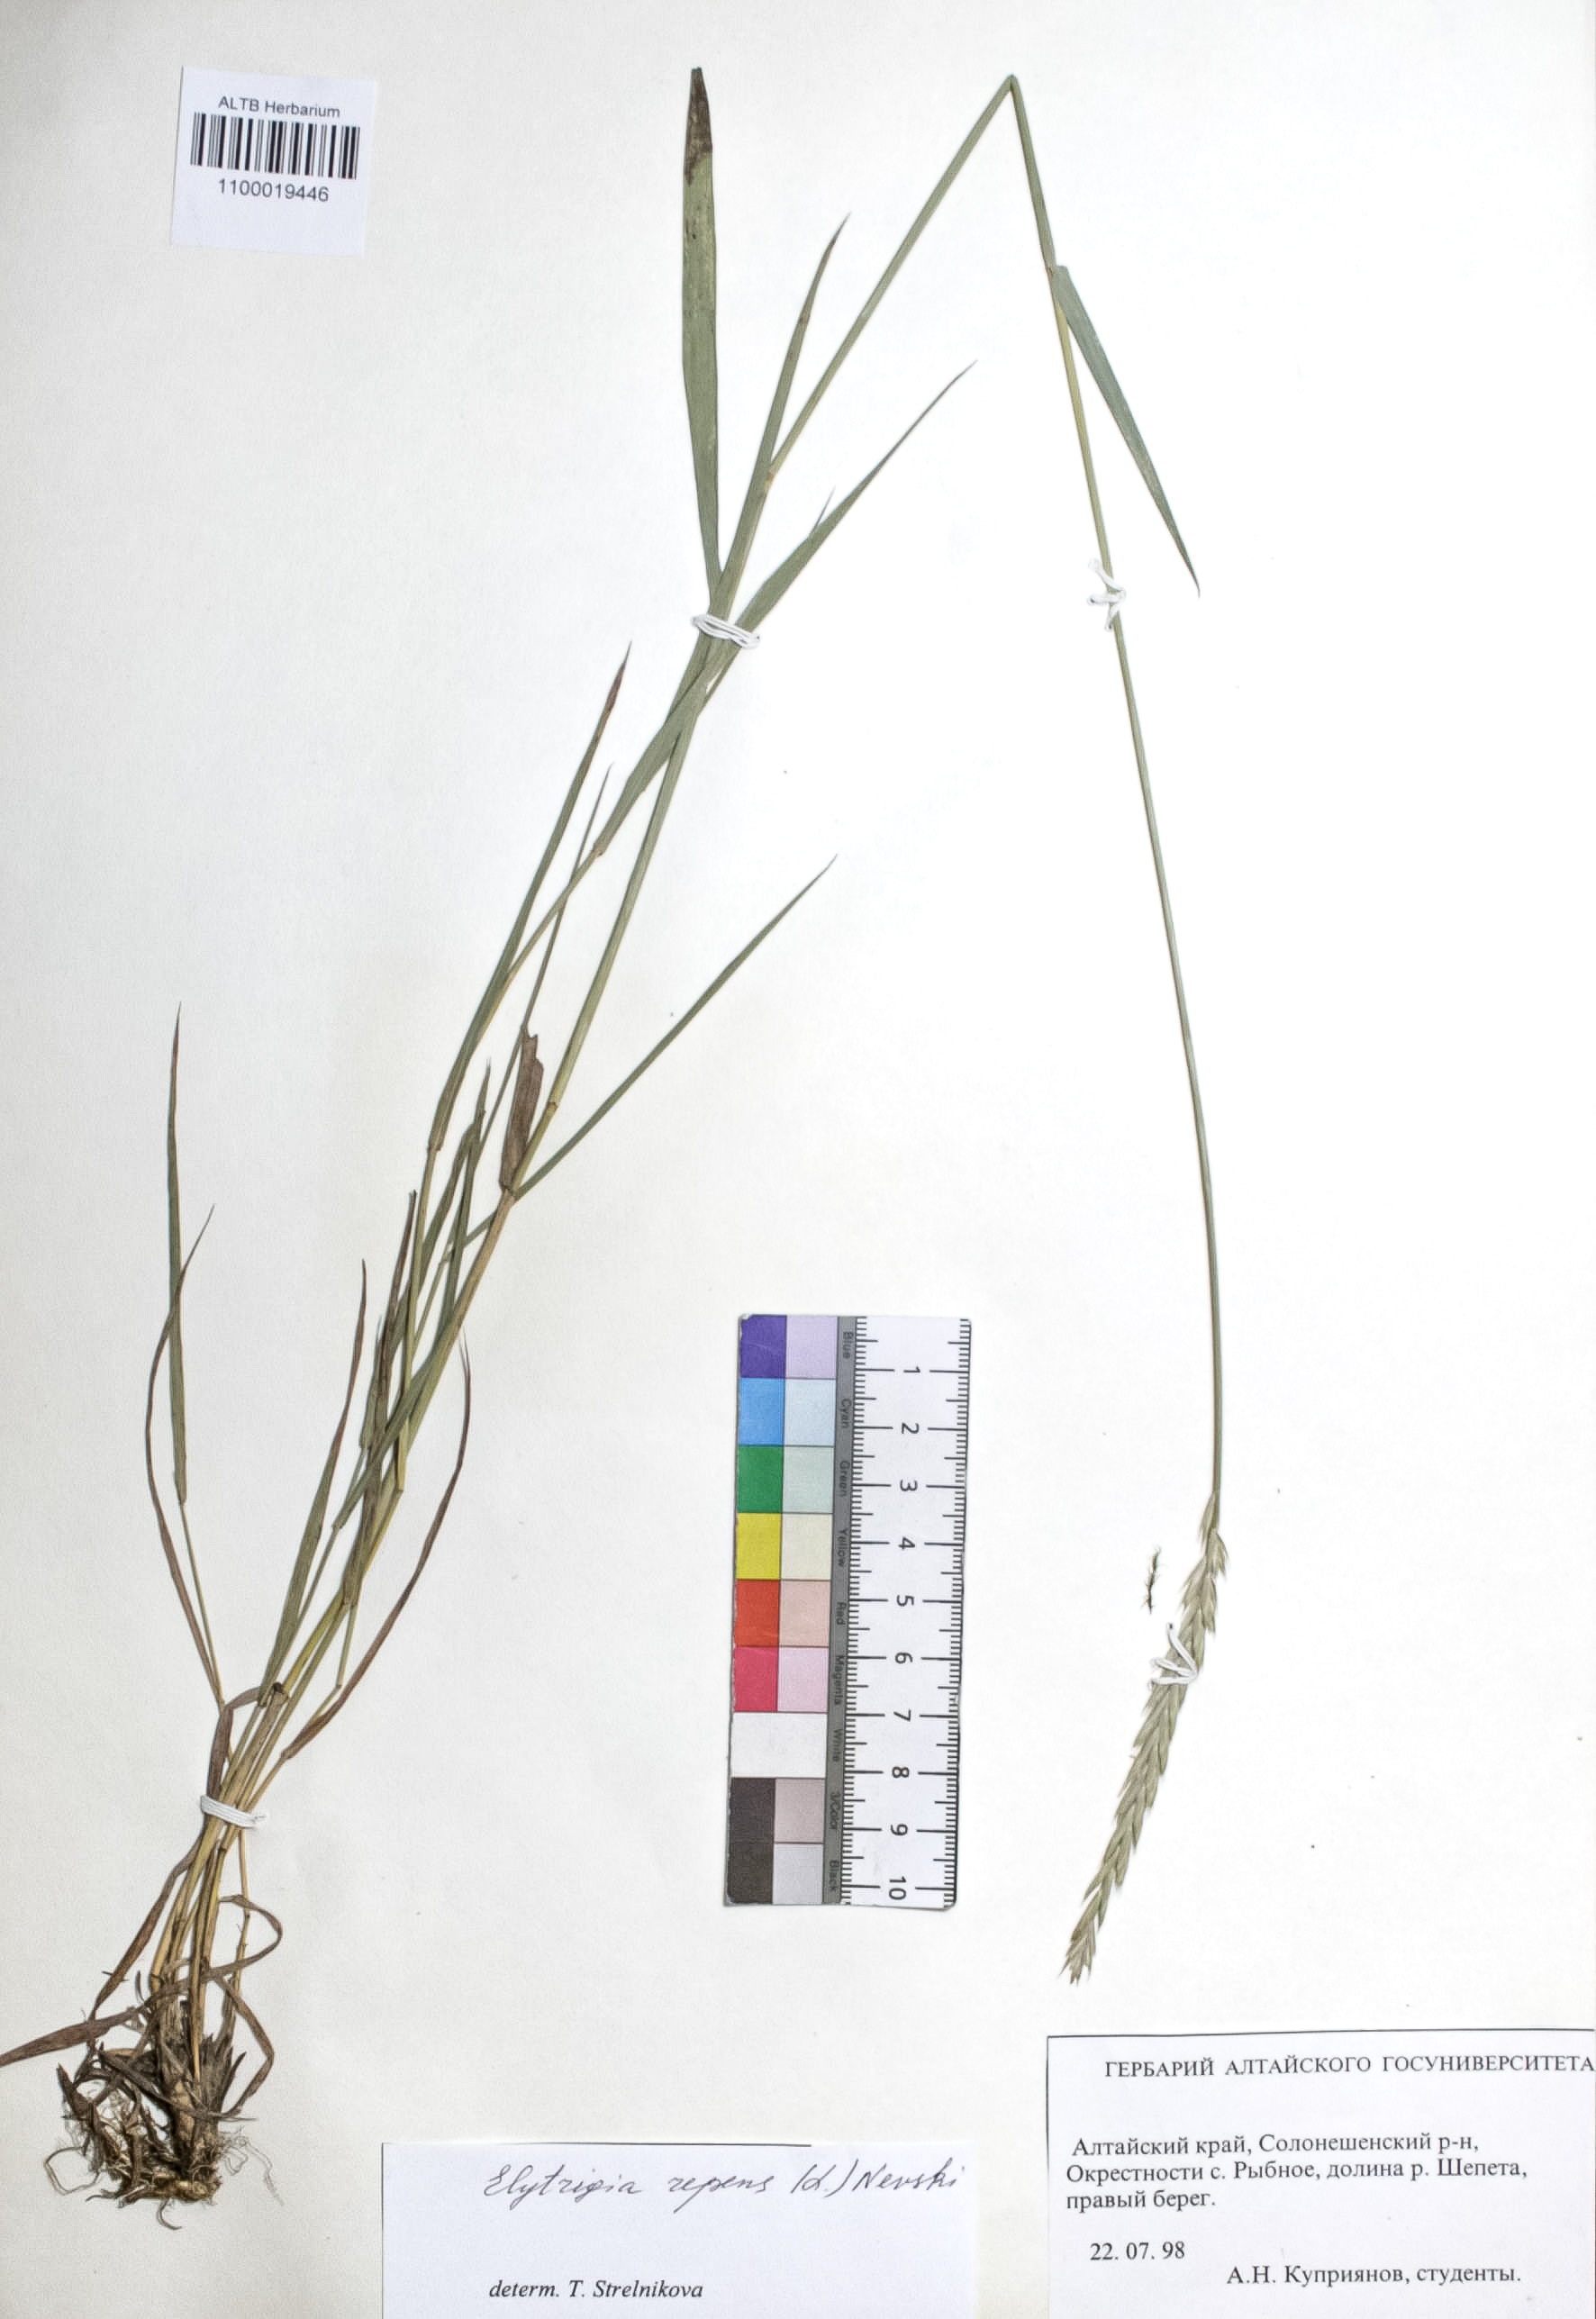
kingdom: Plantae
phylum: Tracheophyta
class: Liliopsida
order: Poales
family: Poaceae
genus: Elymus
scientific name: Elymus repens
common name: Quackgrass
